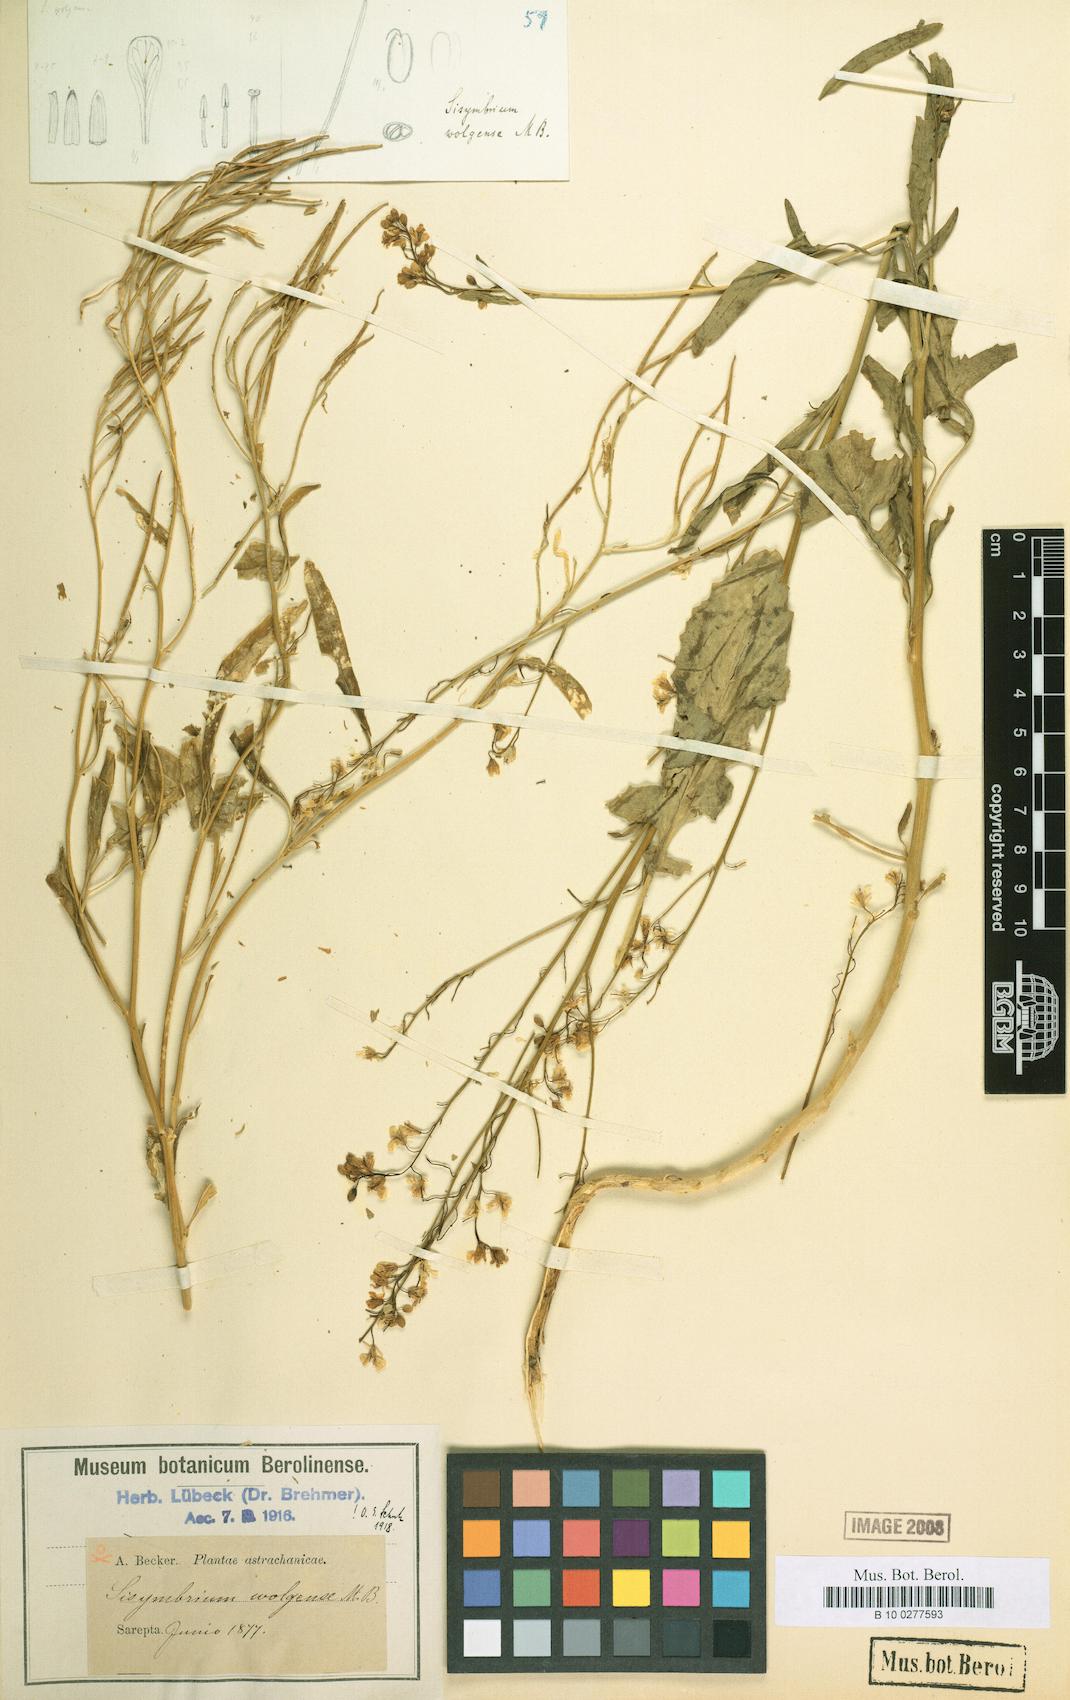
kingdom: Plantae
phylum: Tracheophyta
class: Magnoliopsida
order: Brassicales
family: Brassicaceae
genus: Sisymbrium
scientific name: Sisymbrium volgense
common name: Russian mustard
